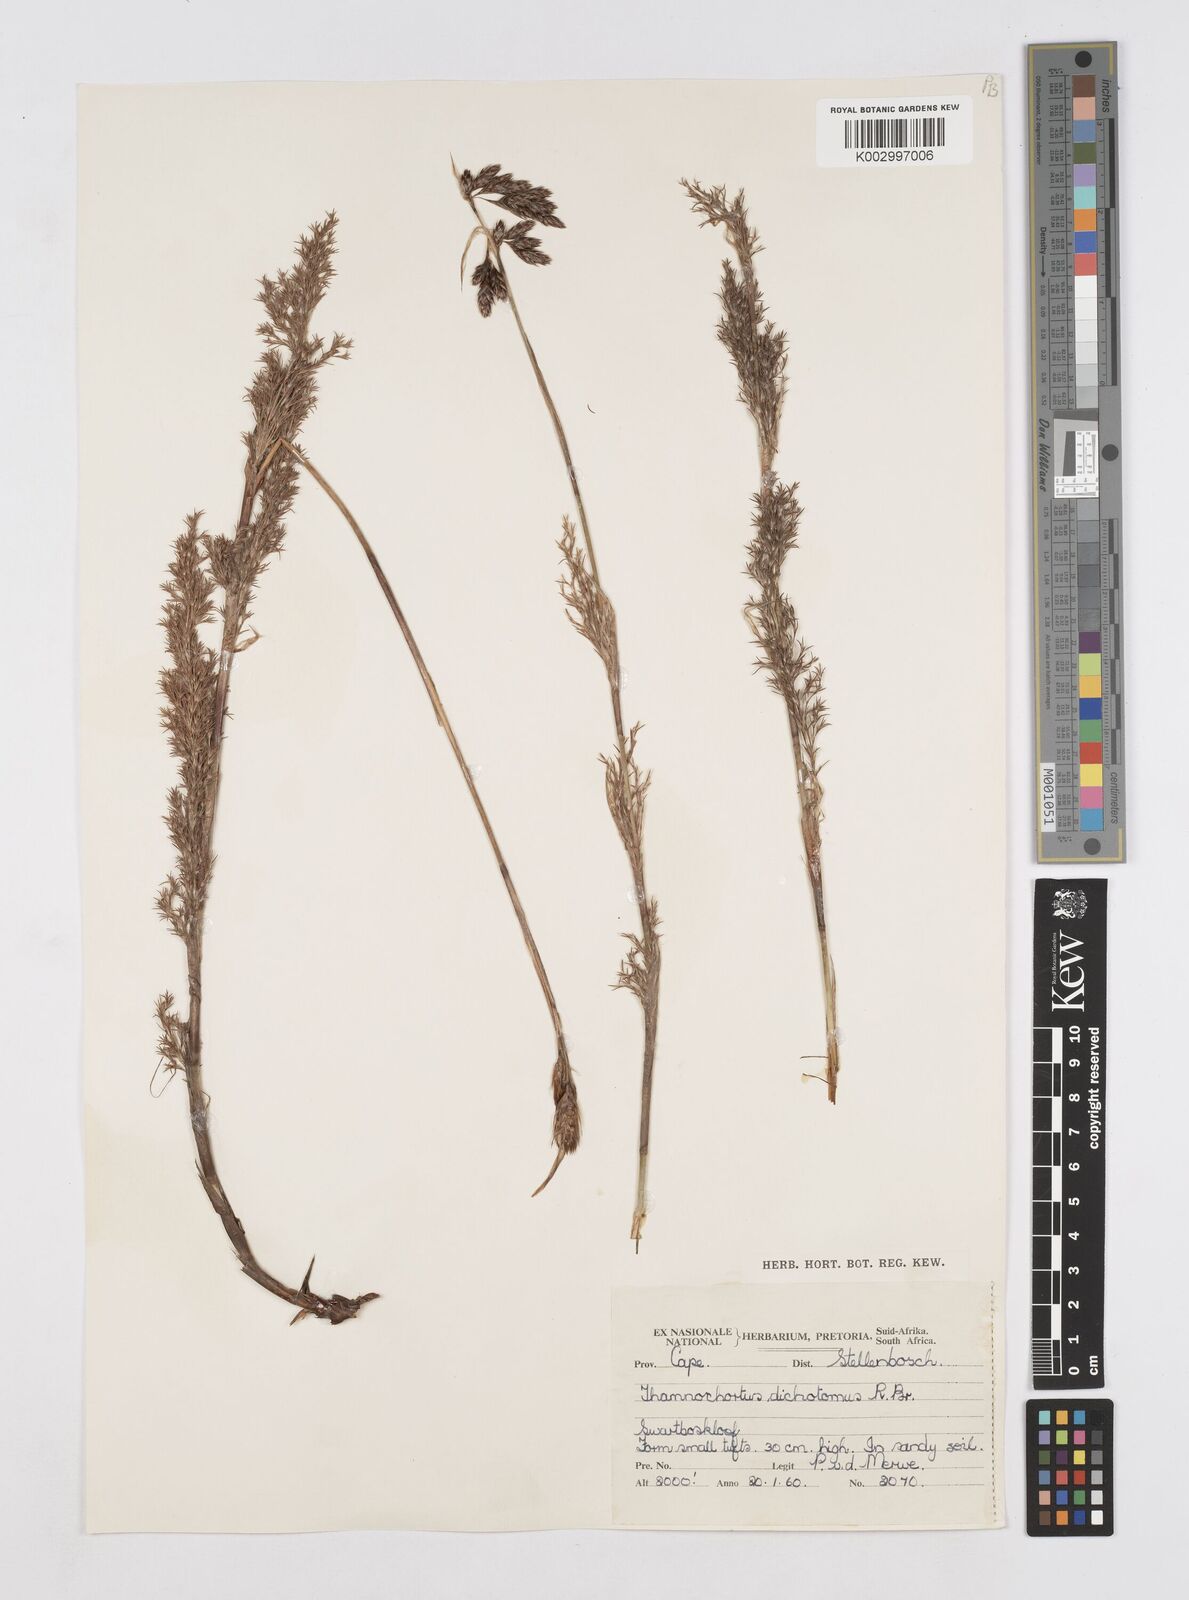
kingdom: Plantae
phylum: Tracheophyta
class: Liliopsida
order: Poales
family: Restionaceae
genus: Thamnochortus
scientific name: Thamnochortus fruticosus
